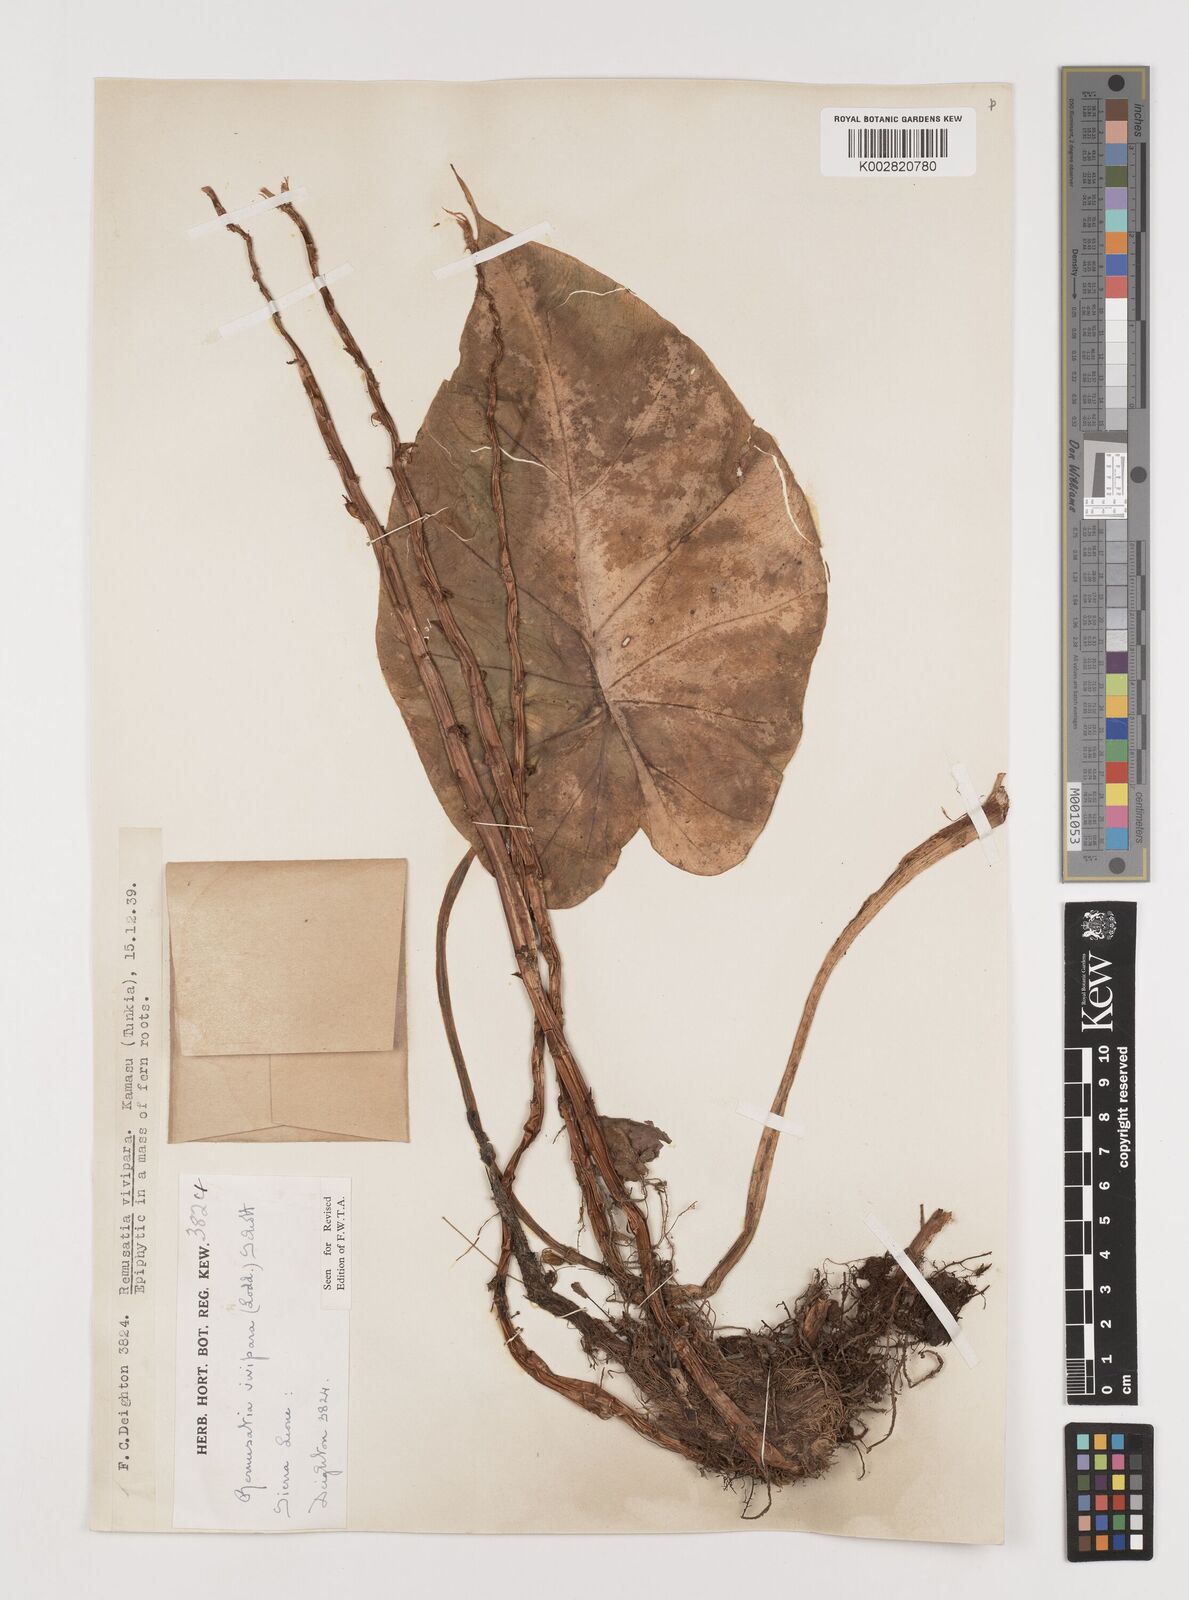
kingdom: Plantae
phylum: Tracheophyta
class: Liliopsida
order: Alismatales
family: Araceae
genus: Remusatia
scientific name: Remusatia vivipara
